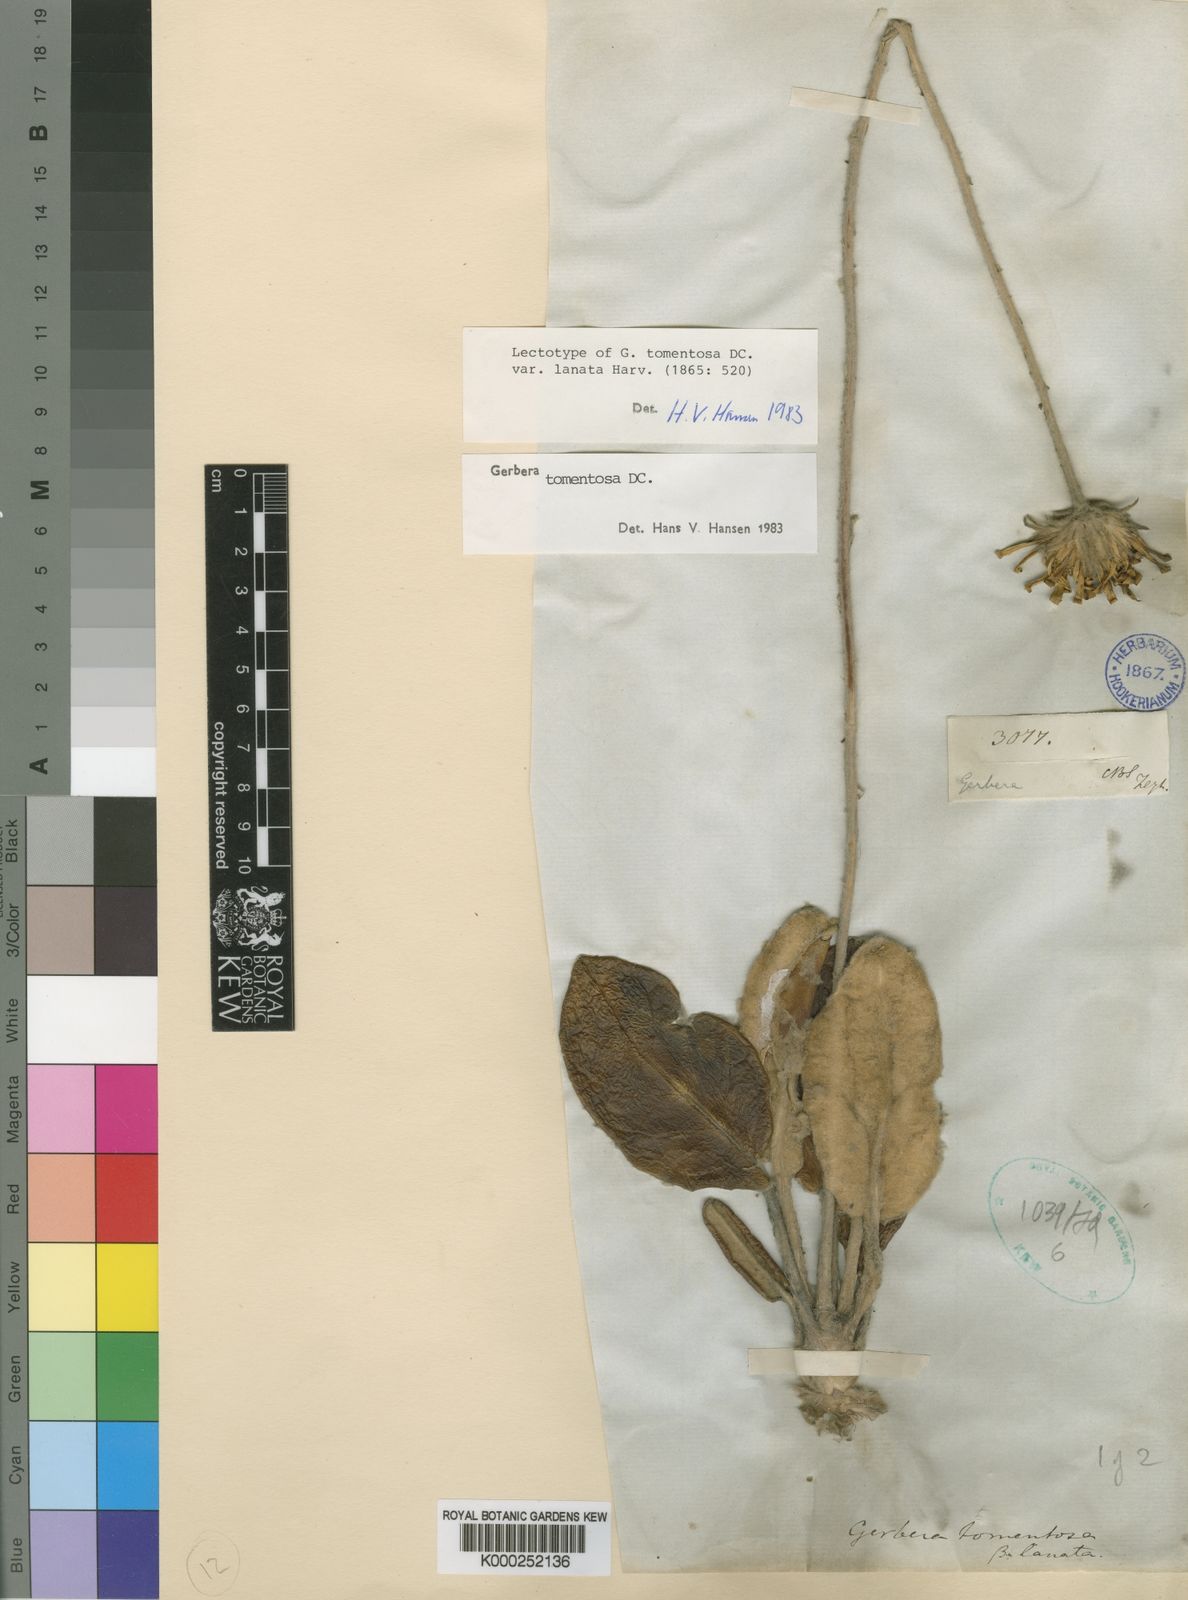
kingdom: Plantae
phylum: Tracheophyta
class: Magnoliopsida
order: Asterales
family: Asteraceae
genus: Gerbera
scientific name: Gerbera tomentosa
